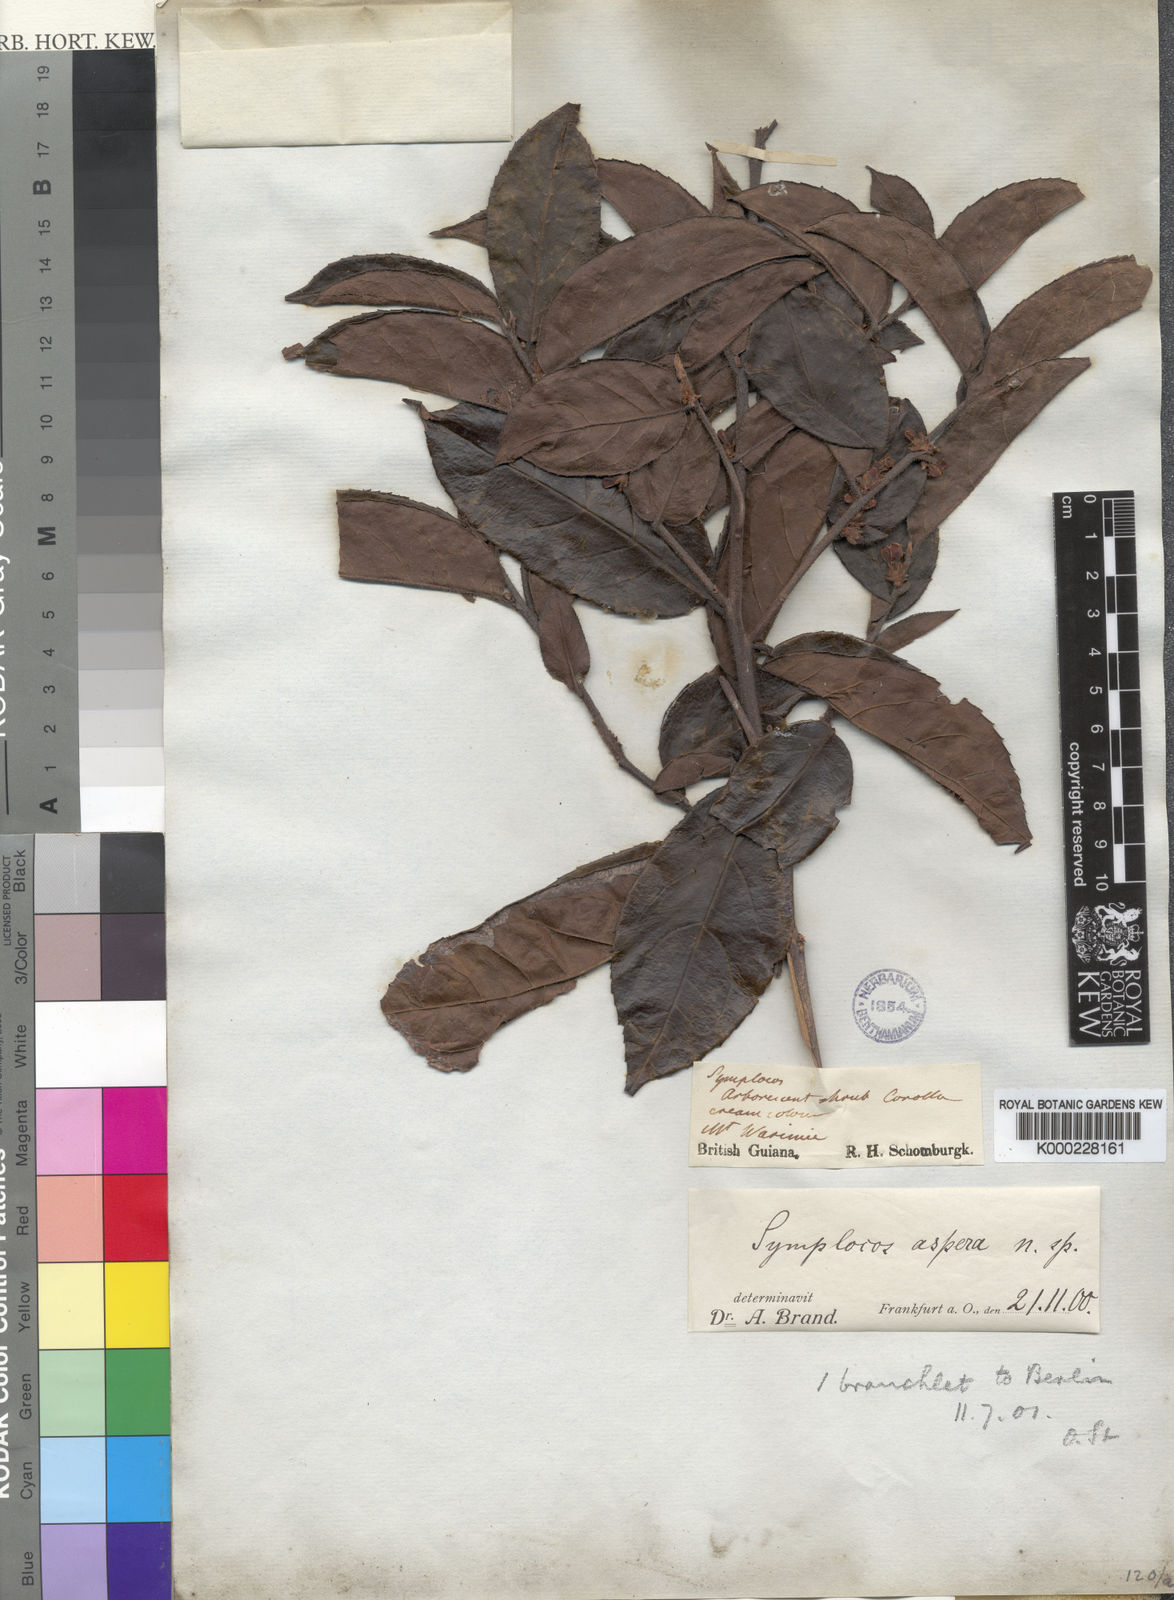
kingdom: Plantae
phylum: Tracheophyta
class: Magnoliopsida
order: Ericales
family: Symplocaceae
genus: Symplocos
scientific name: Symplocos guianensis
